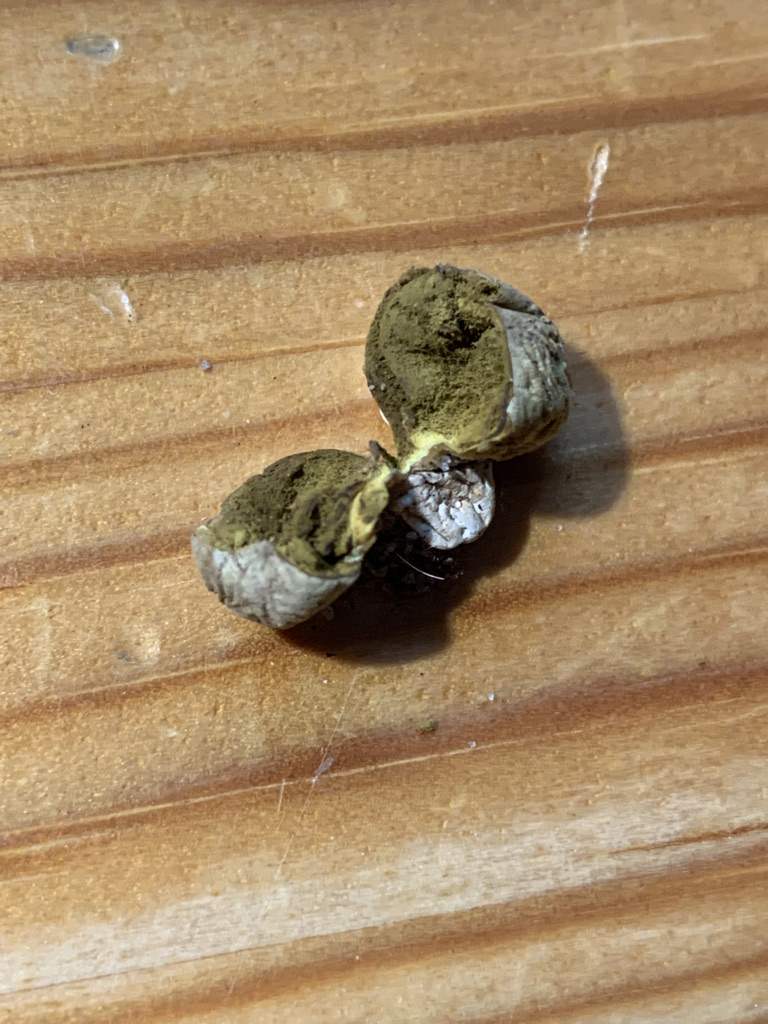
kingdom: Fungi
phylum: Basidiomycota
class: Agaricomycetes
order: Agaricales
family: Lycoperdaceae
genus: Lycoperdon
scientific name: Lycoperdon dermoxanthum
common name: Dwarf puffball
